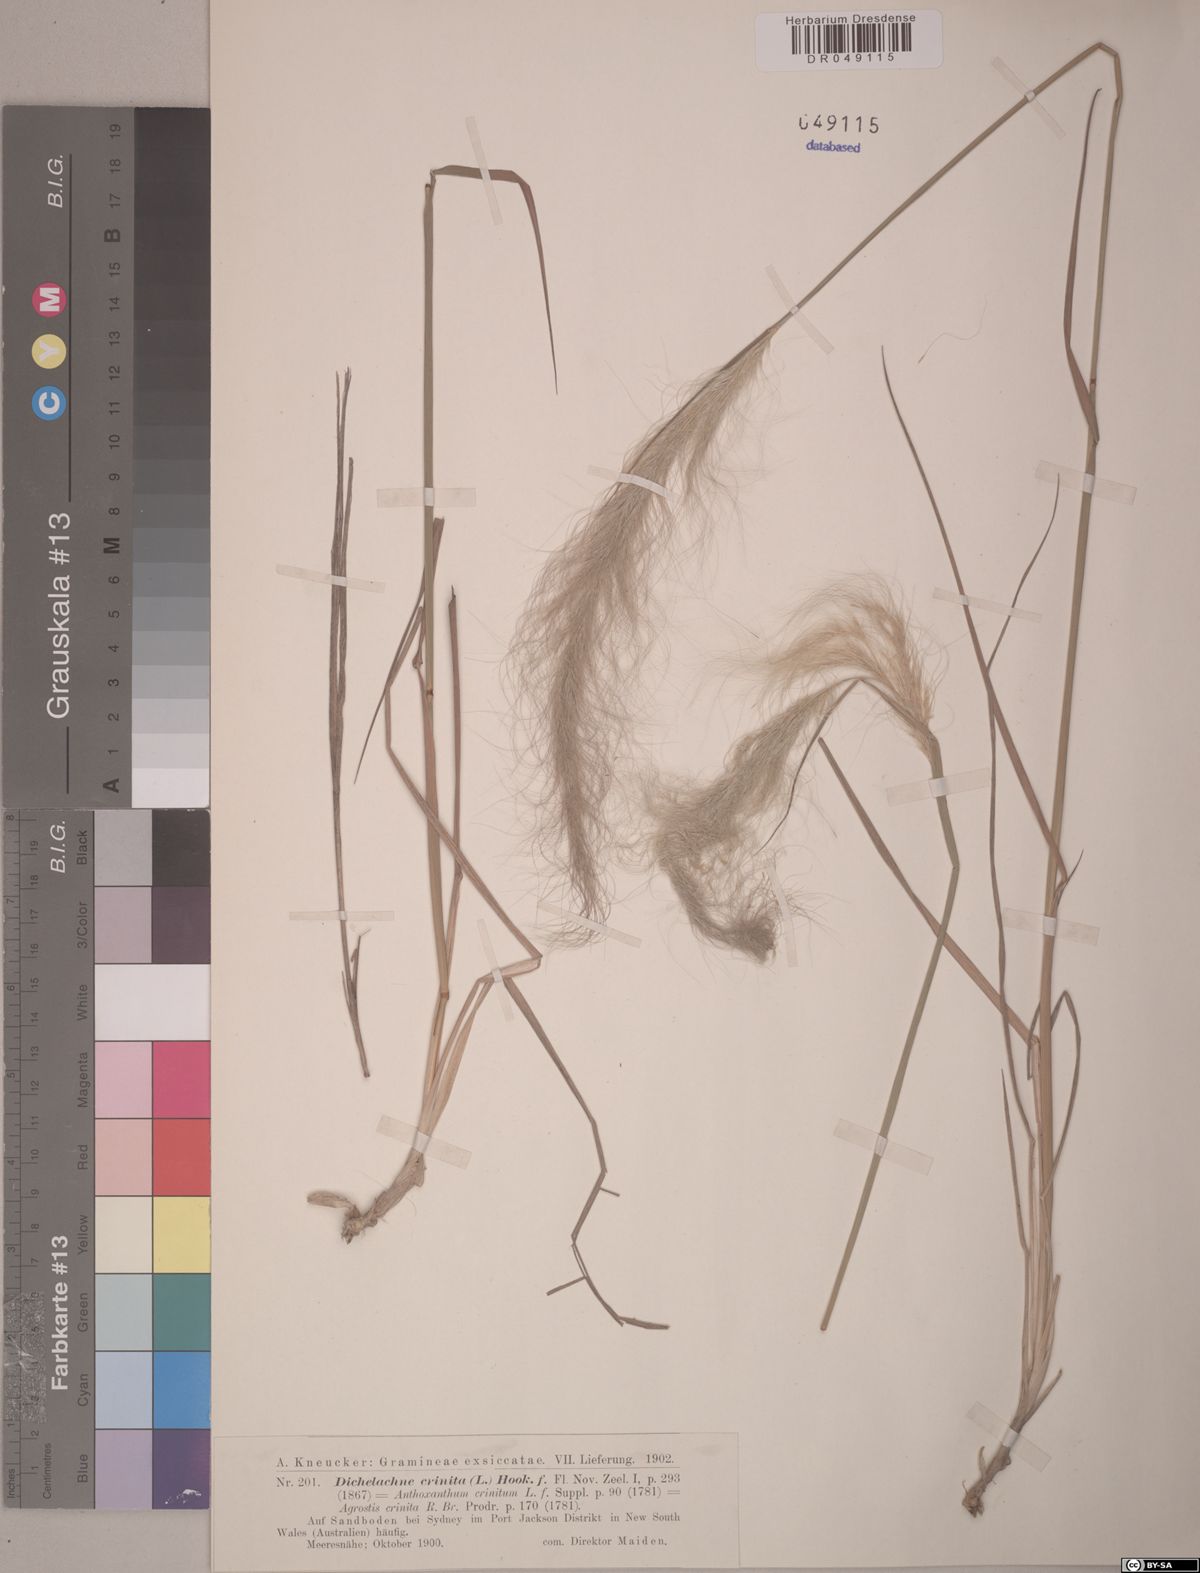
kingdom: Plantae
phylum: Tracheophyta
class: Liliopsida
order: Poales
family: Poaceae
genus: Dichelachne
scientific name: Dichelachne crinita
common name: Clovenfoot plumegrass
